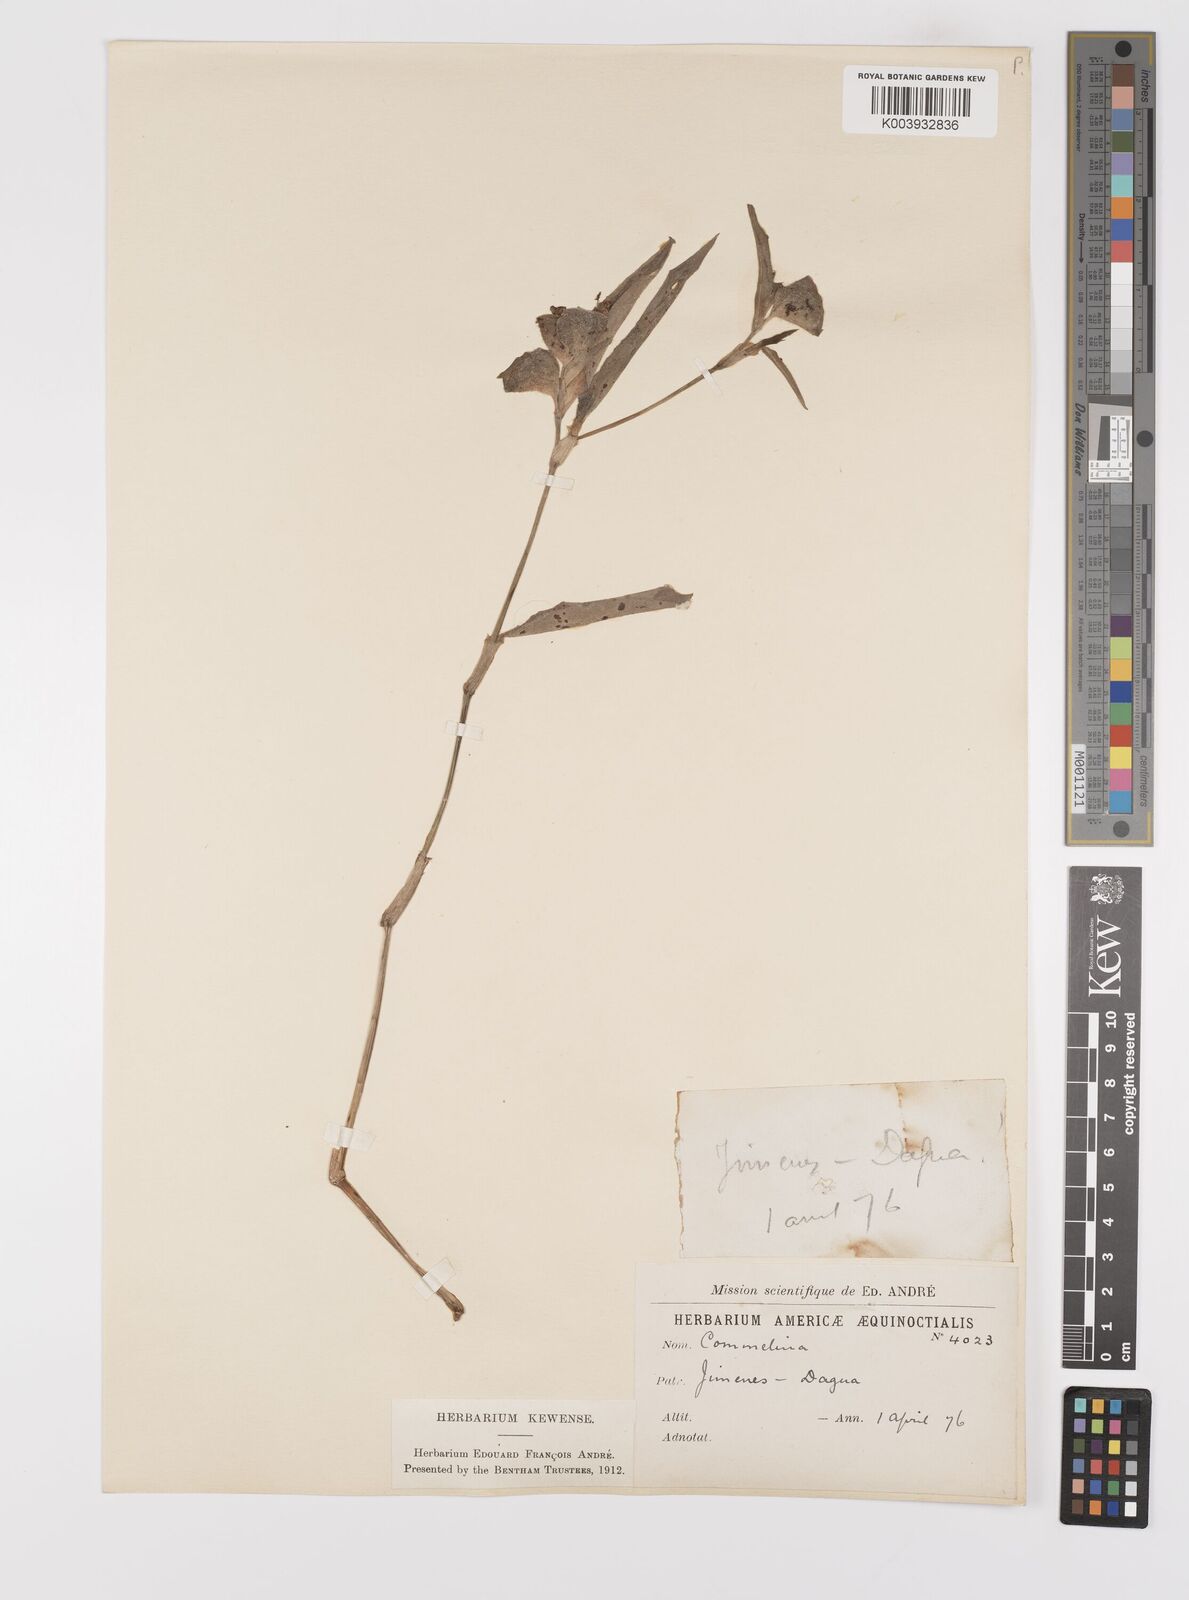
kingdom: Plantae
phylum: Tracheophyta
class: Liliopsida
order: Commelinales
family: Commelinaceae
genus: Commelina
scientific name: Commelina
